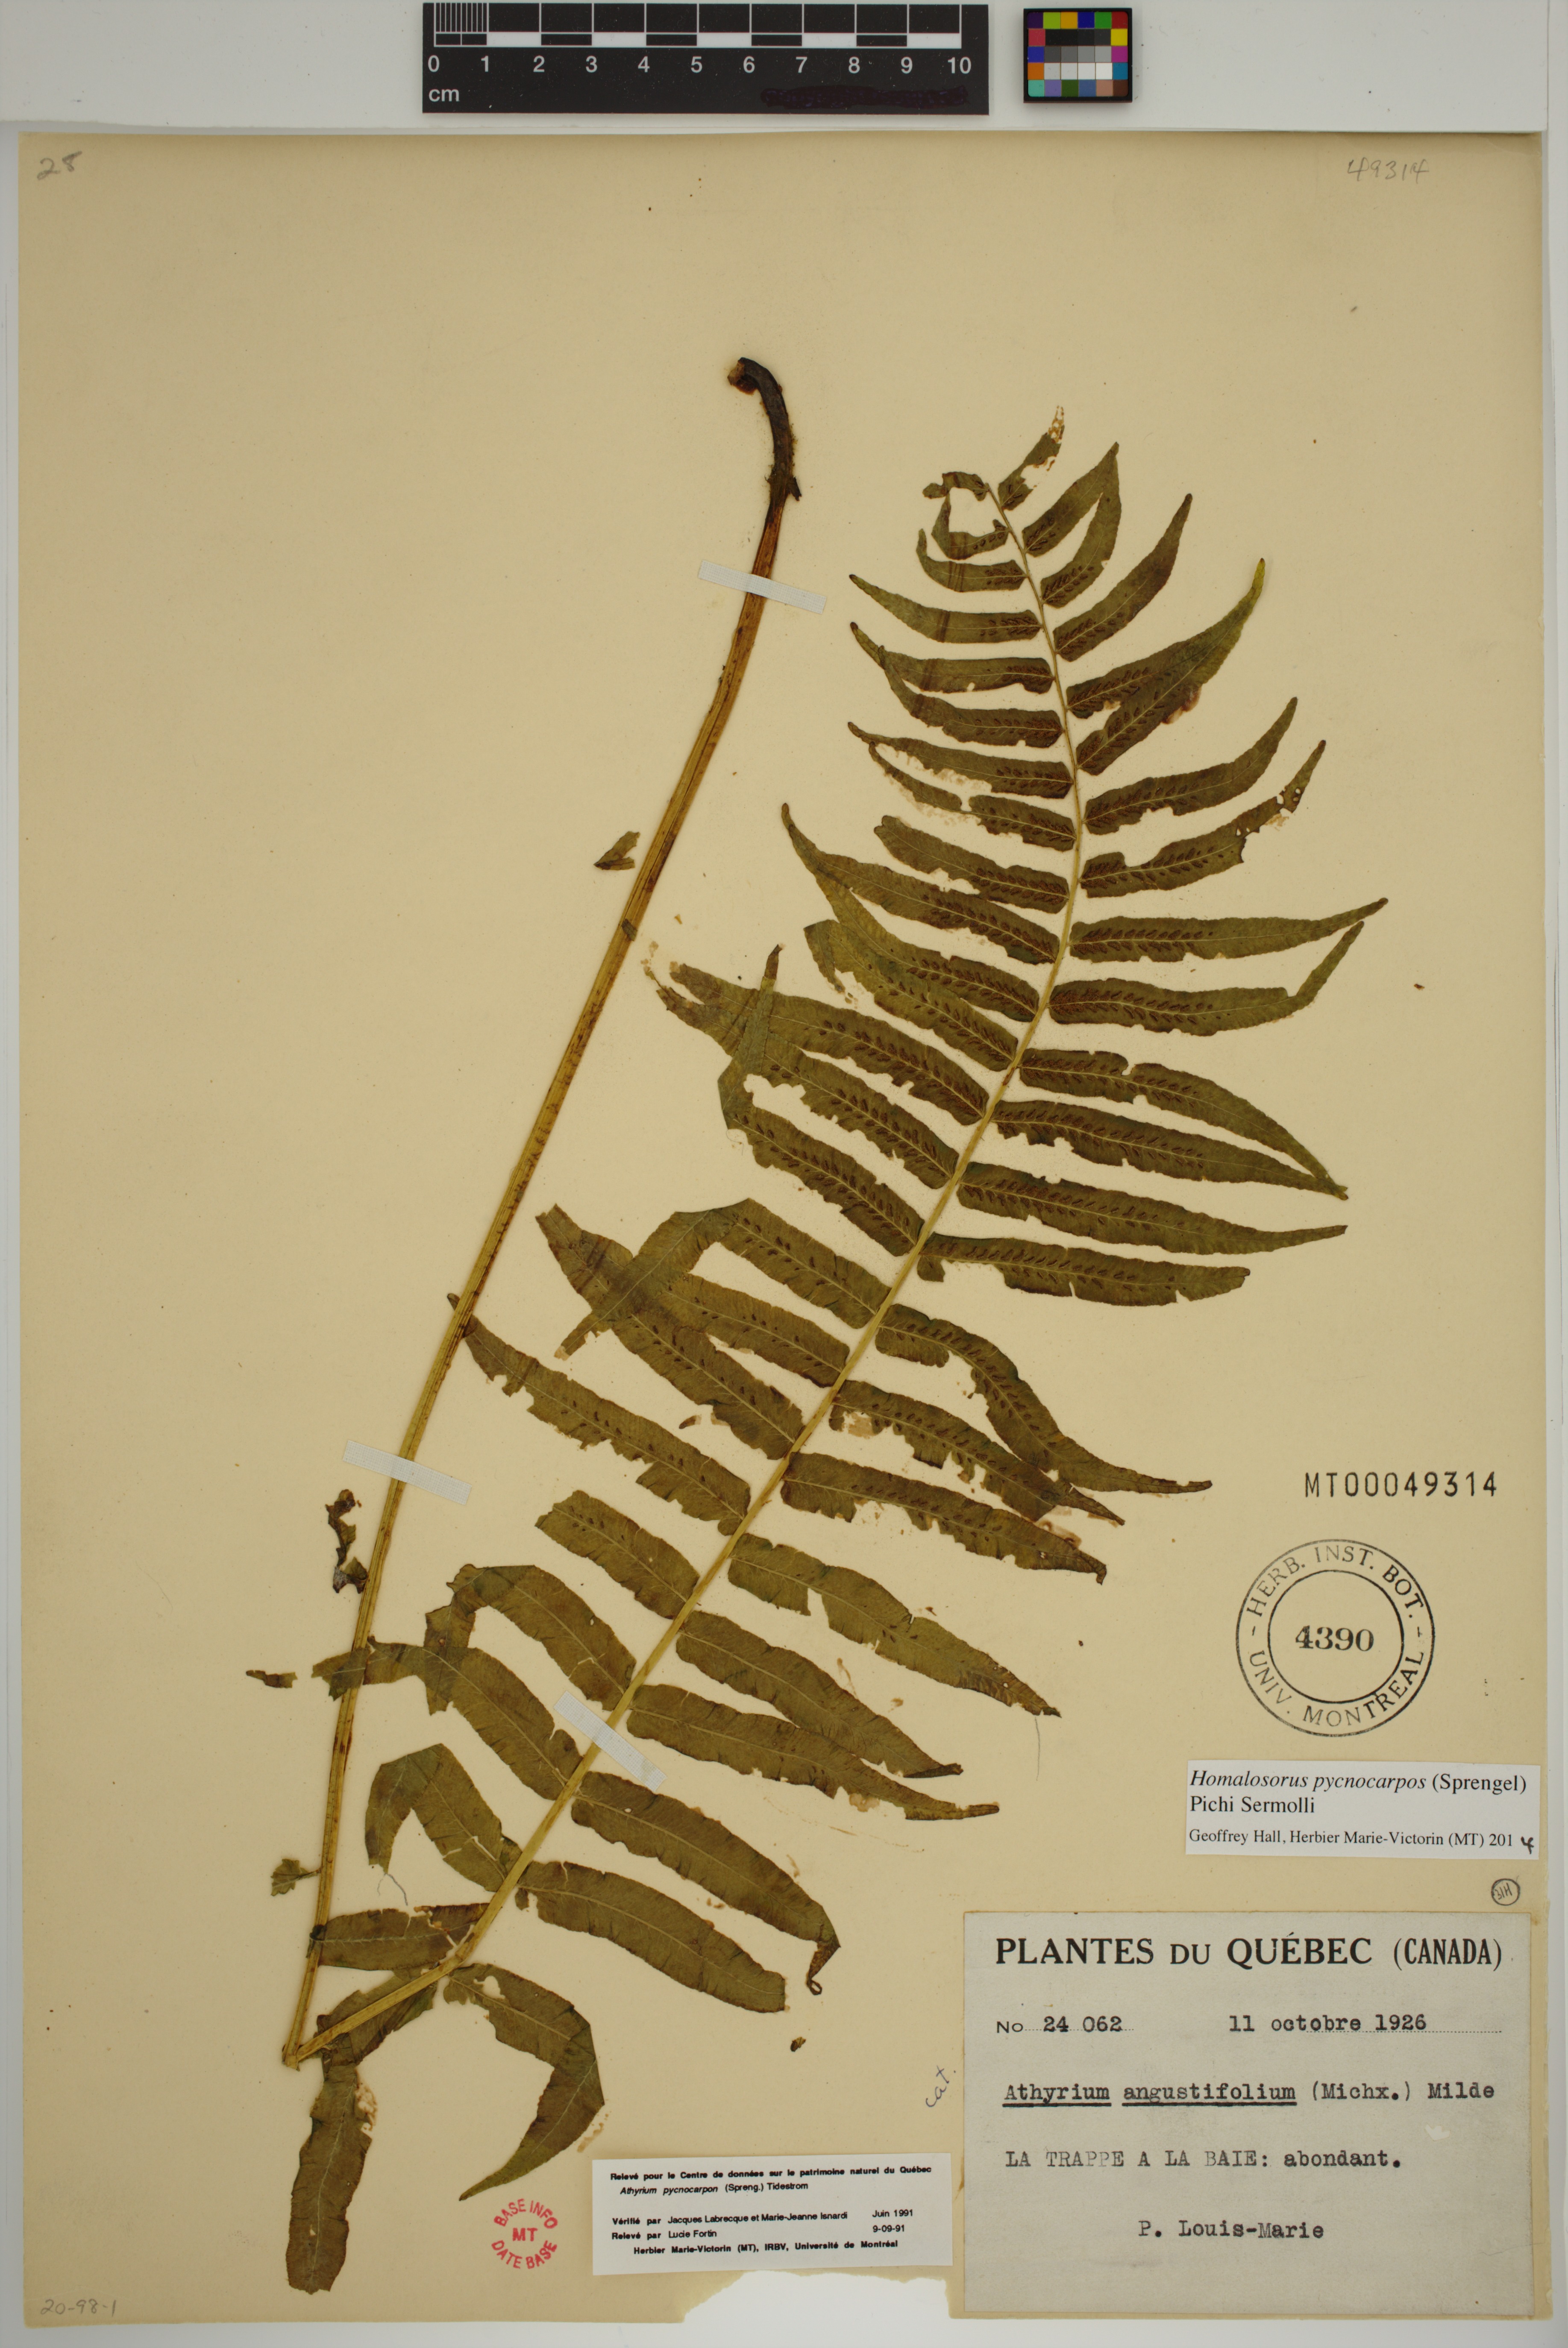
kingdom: Plantae
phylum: Tracheophyta
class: Polypodiopsida
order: Polypodiales
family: Diplaziopsidaceae
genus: Homalosorus
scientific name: Homalosorus pycnocarpos
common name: Glade fern
